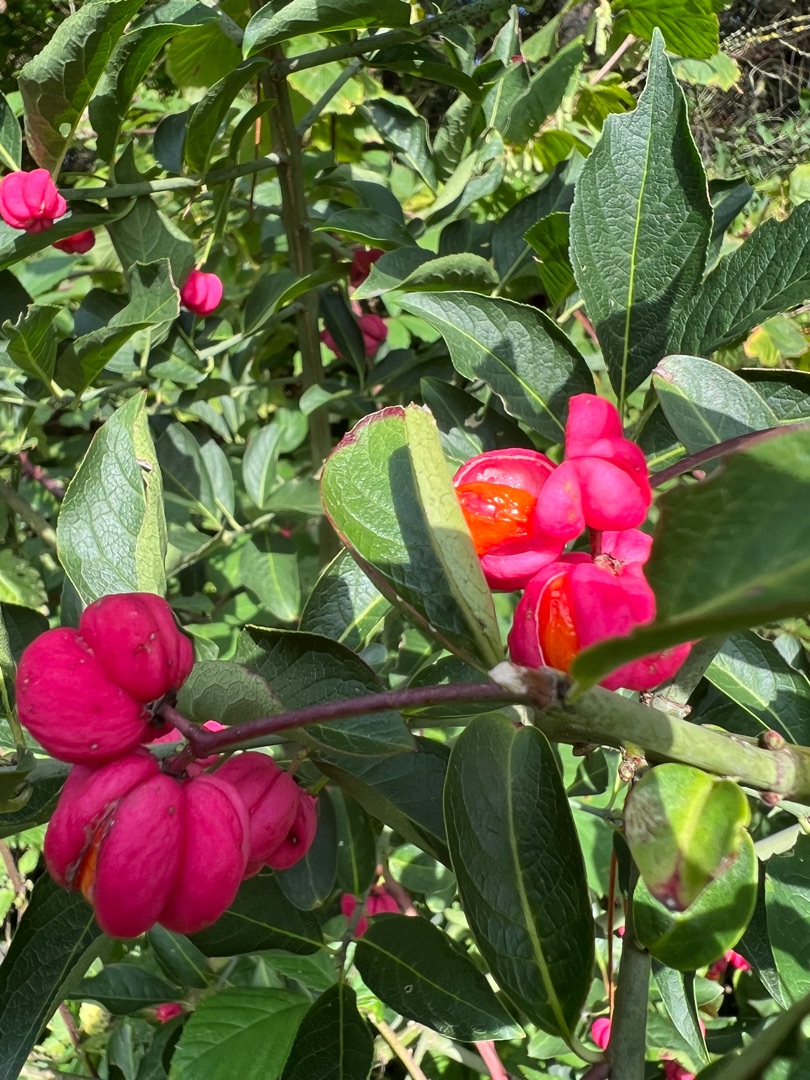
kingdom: Plantae
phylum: Tracheophyta
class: Magnoliopsida
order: Celastrales
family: Celastraceae
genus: Euonymus
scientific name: Euonymus europaeus
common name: Benved
